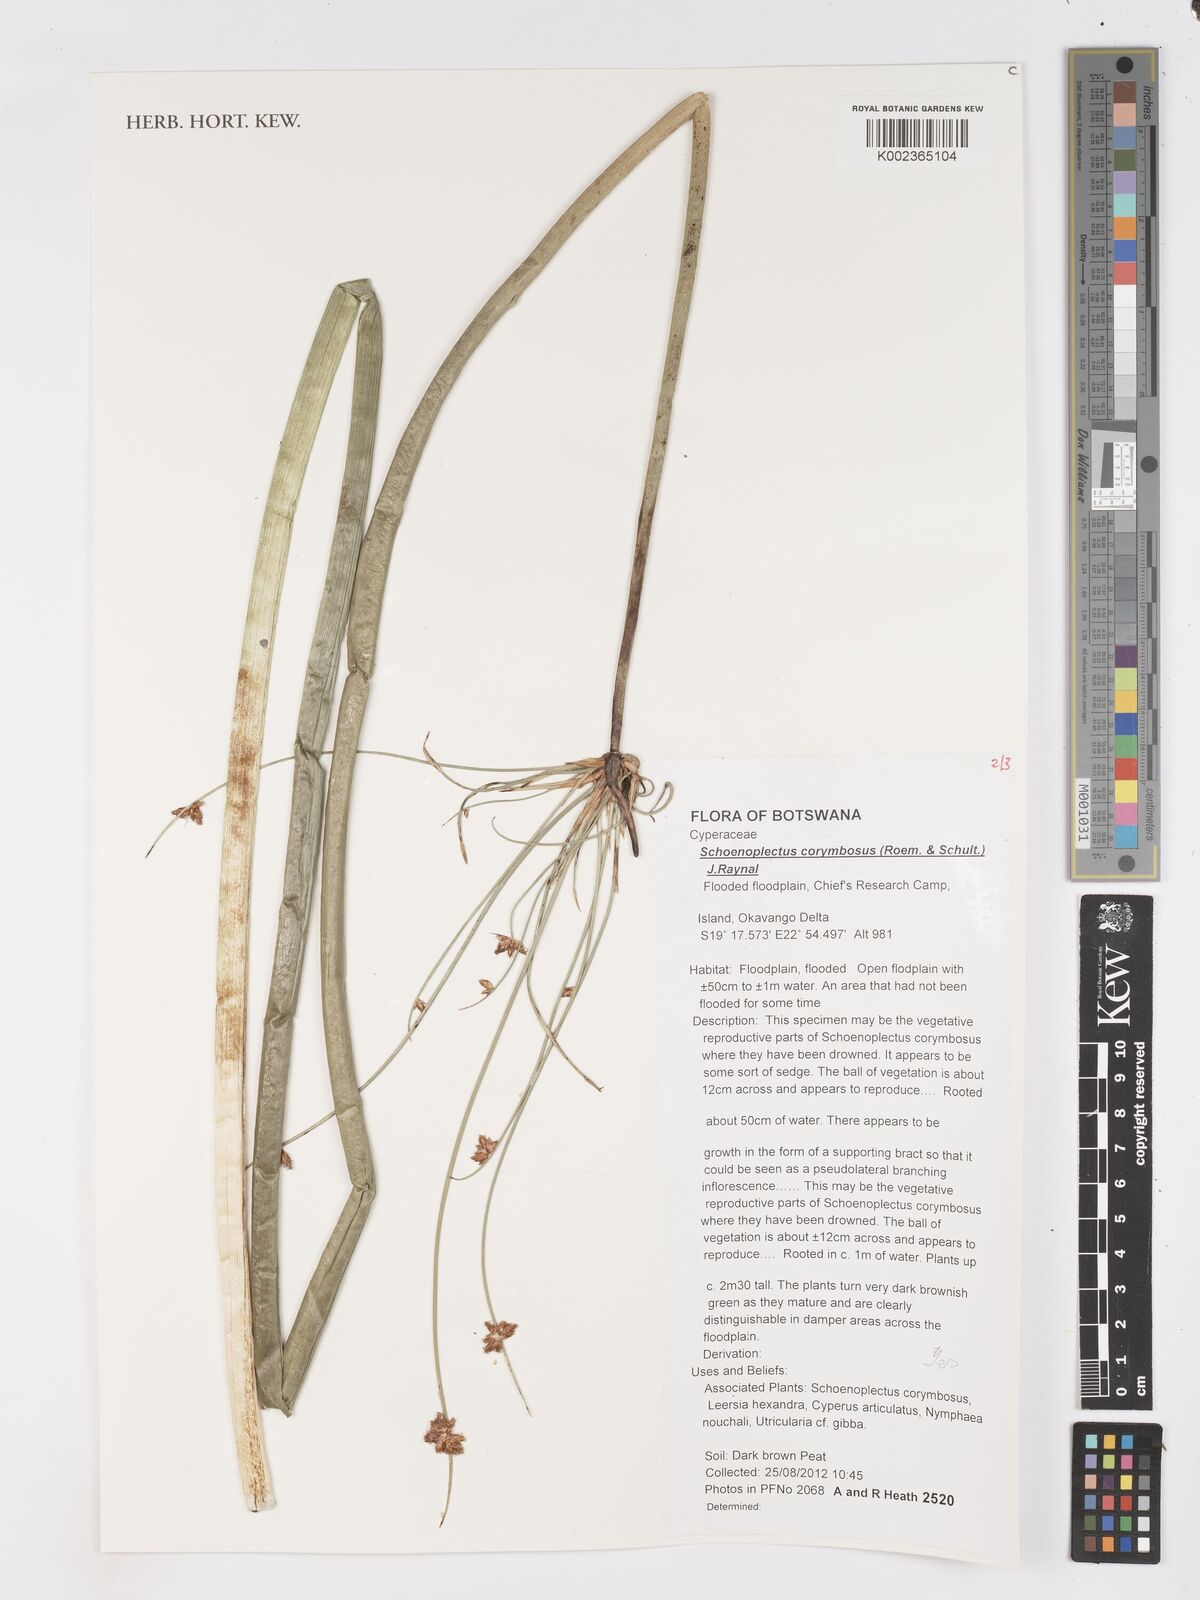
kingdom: Plantae
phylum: Tracheophyta
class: Liliopsida
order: Poales
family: Cyperaceae
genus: Schoenoplectiella
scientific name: Schoenoplectiella brachyceras
